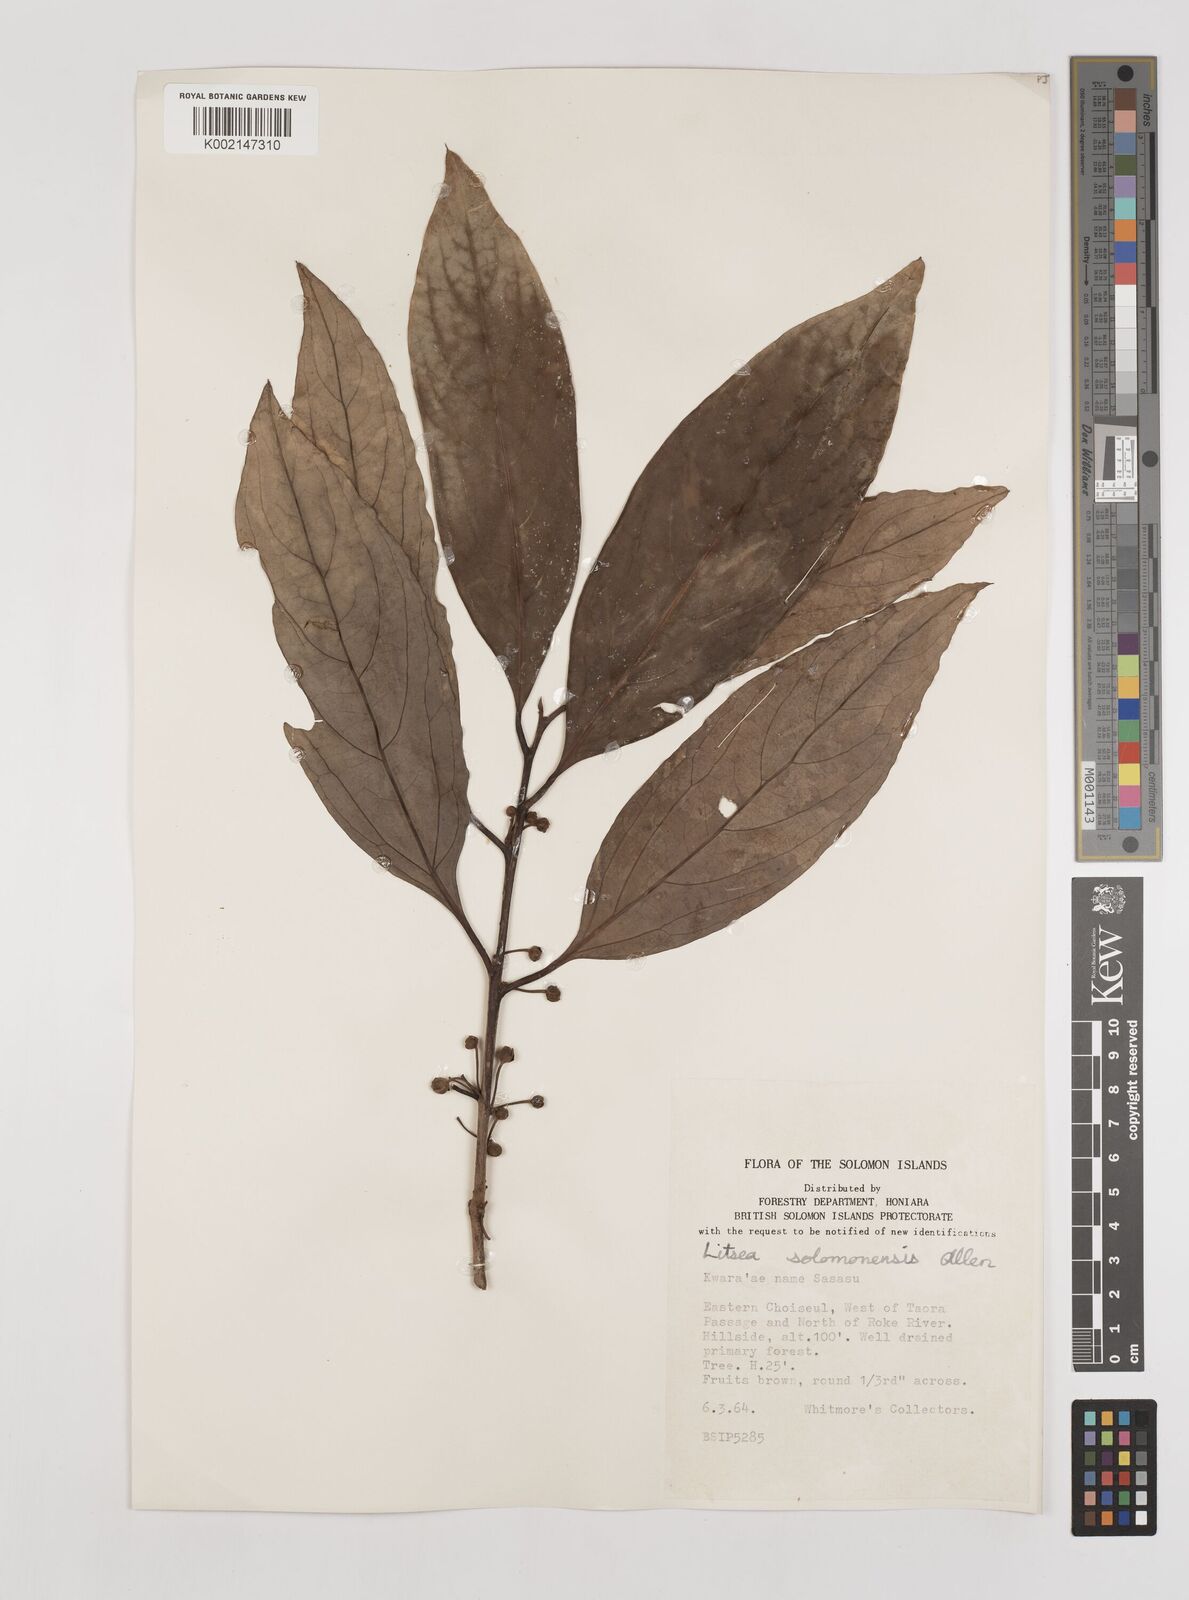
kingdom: Plantae
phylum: Tracheophyta
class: Magnoliopsida
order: Laurales
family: Lauraceae
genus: Litsea
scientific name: Litsea timoriana
